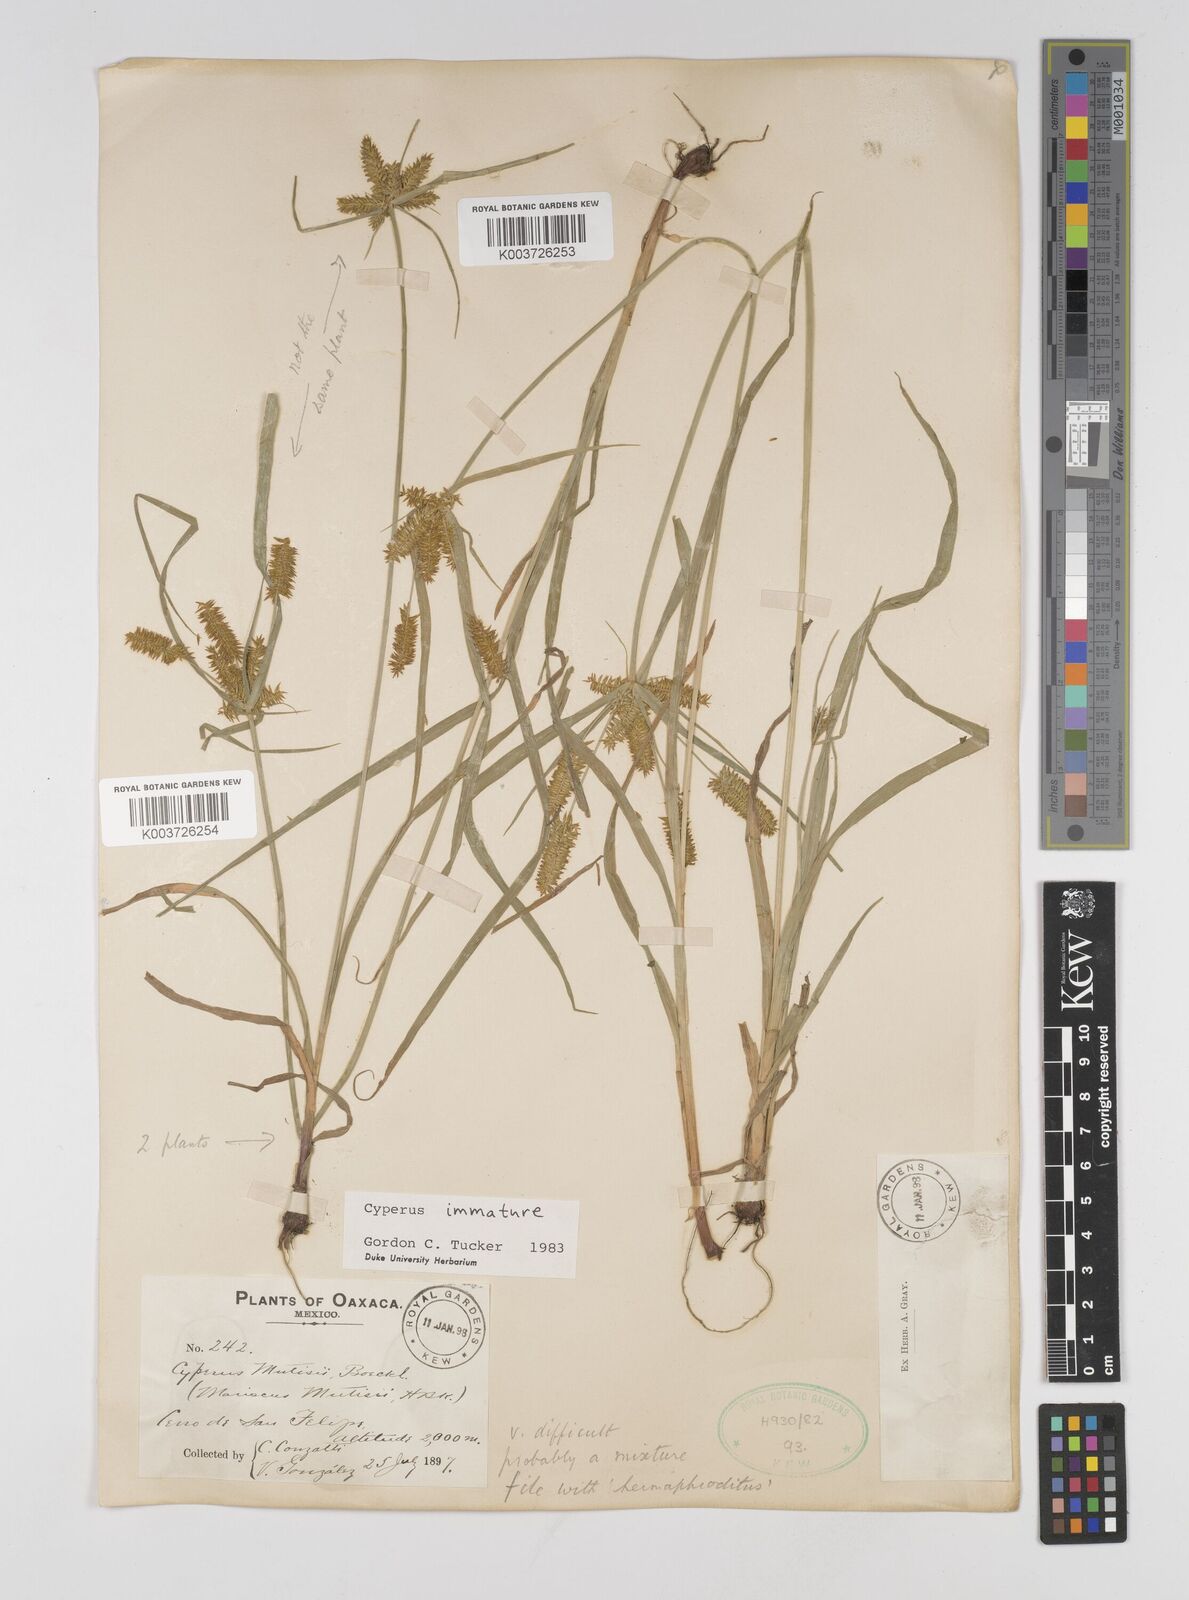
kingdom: Plantae
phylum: Tracheophyta
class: Liliopsida
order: Poales
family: Cyperaceae
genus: Cyperus
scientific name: Cyperus hermaphroditus
